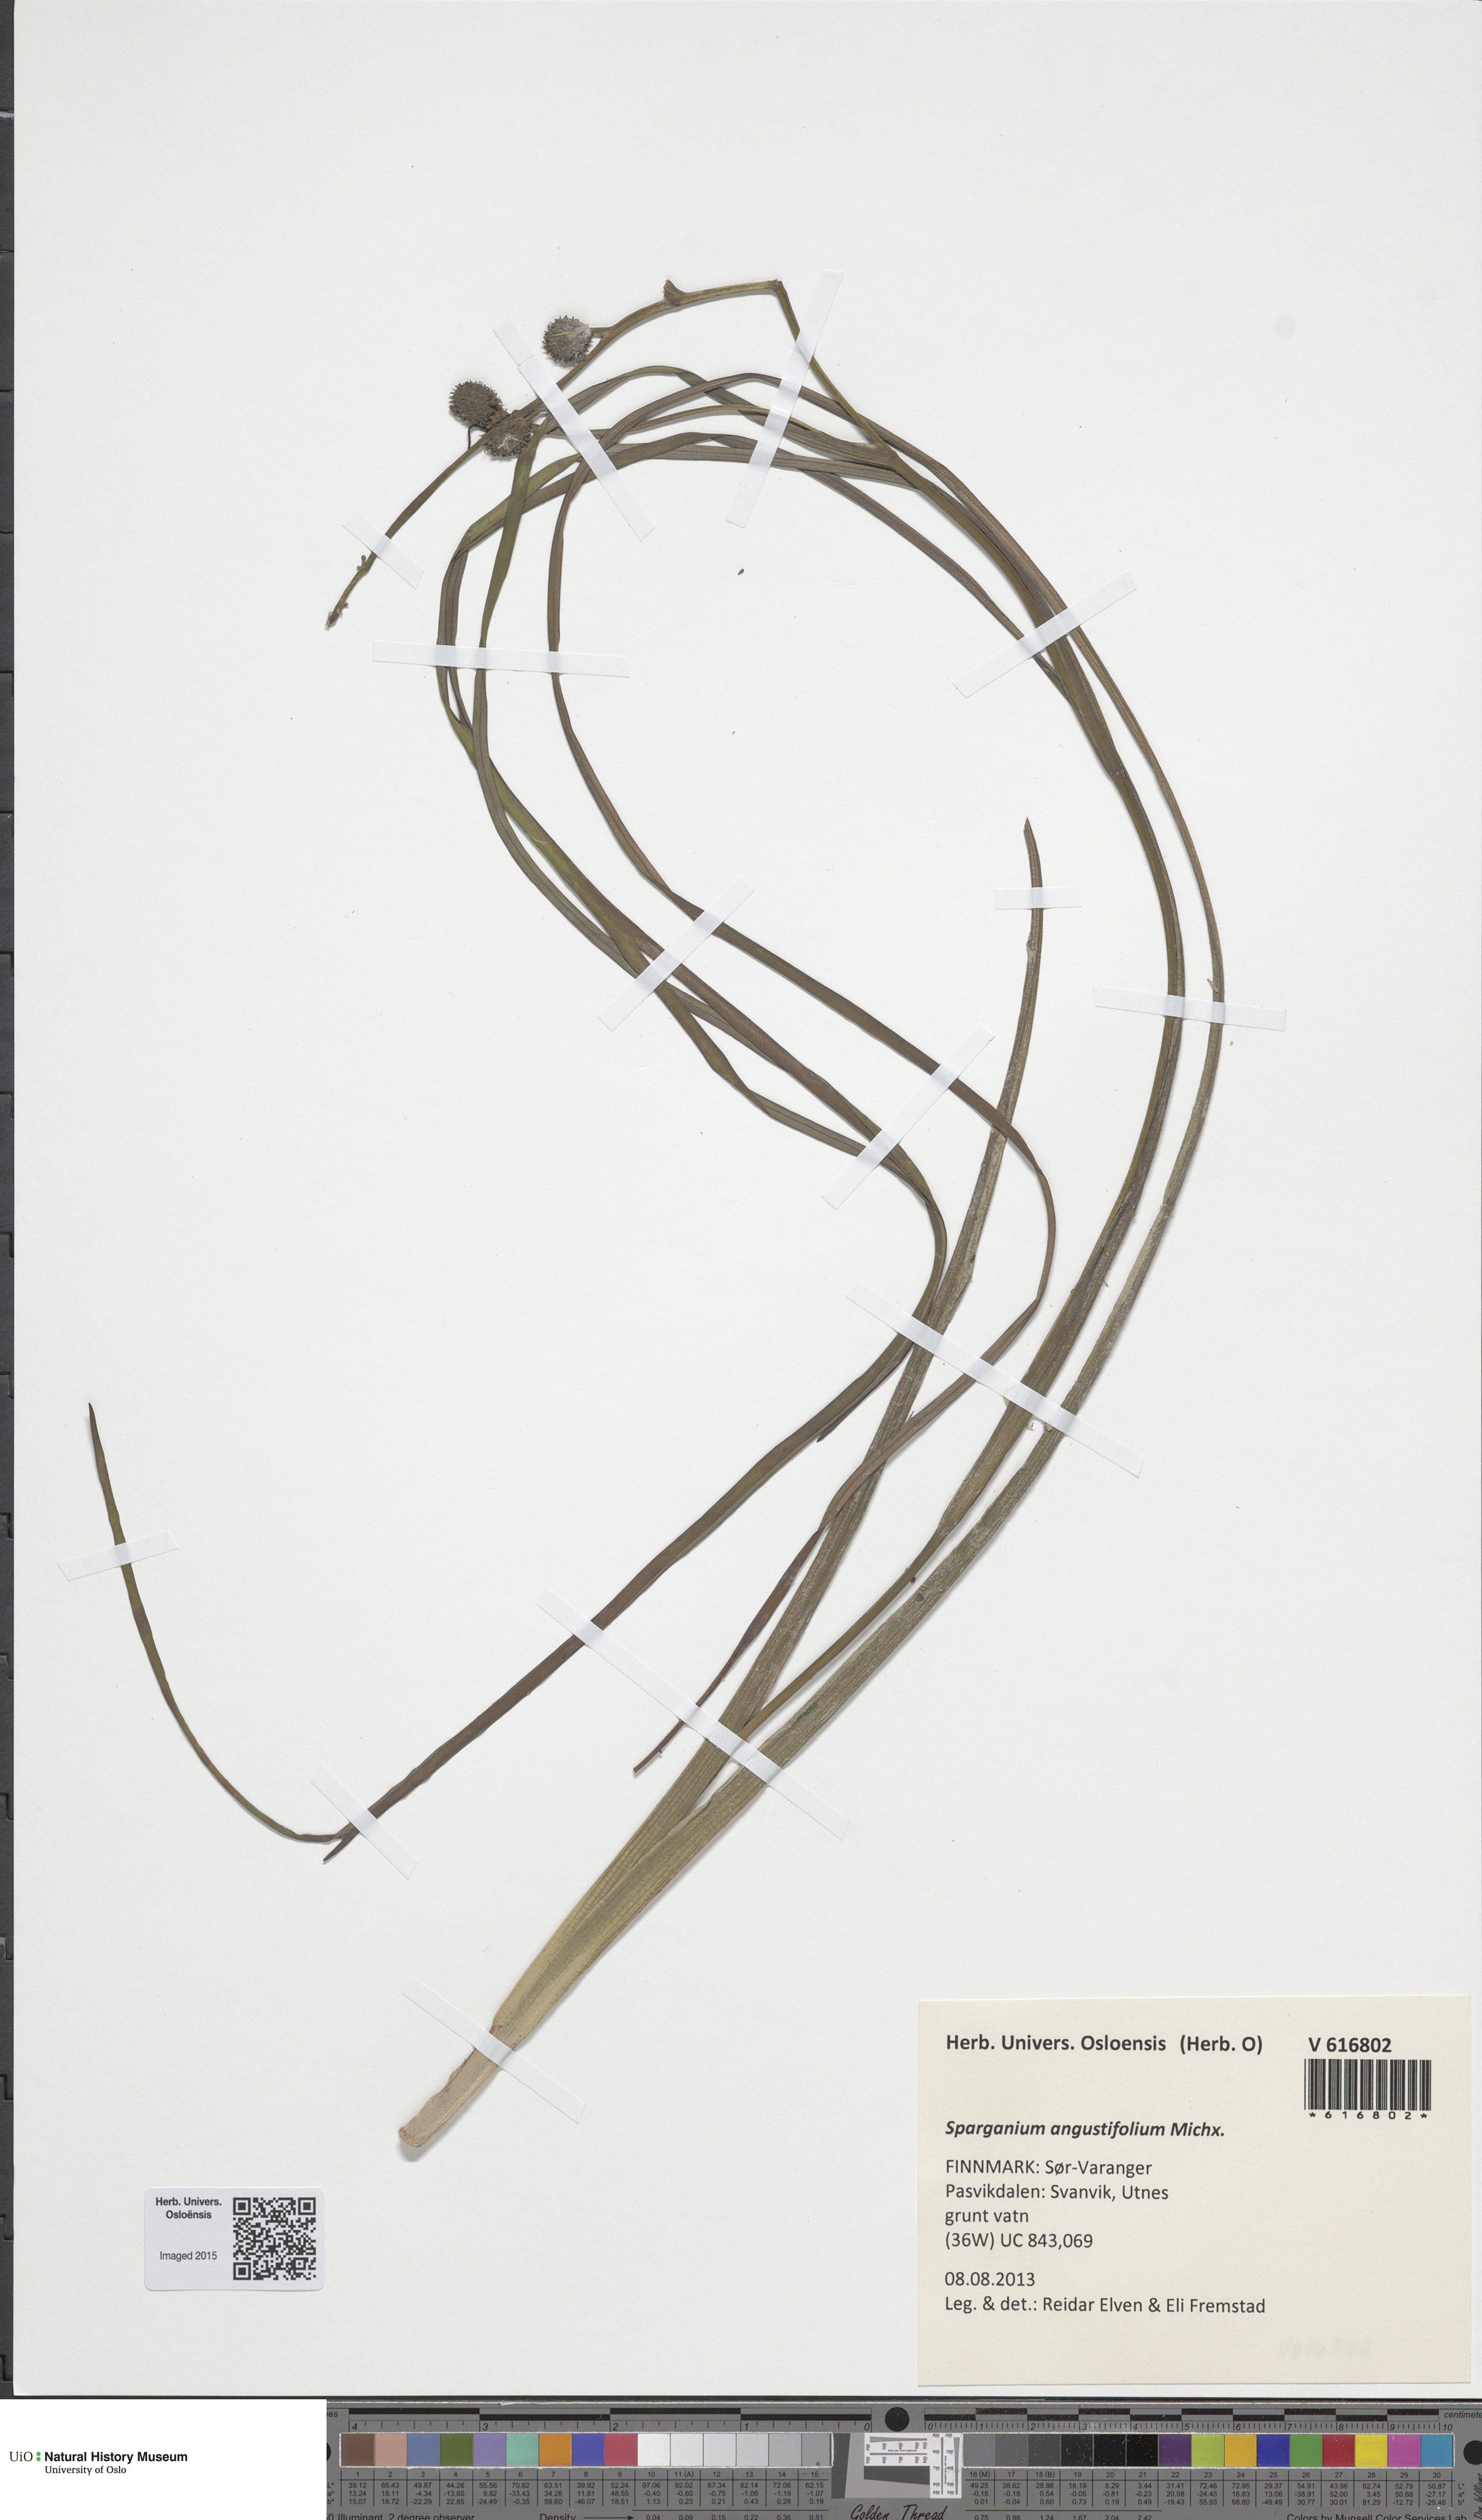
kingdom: Plantae
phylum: Tracheophyta
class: Liliopsida
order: Poales
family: Typhaceae
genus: Sparganium
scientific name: Sparganium angustifolium
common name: Floating bur-reed
